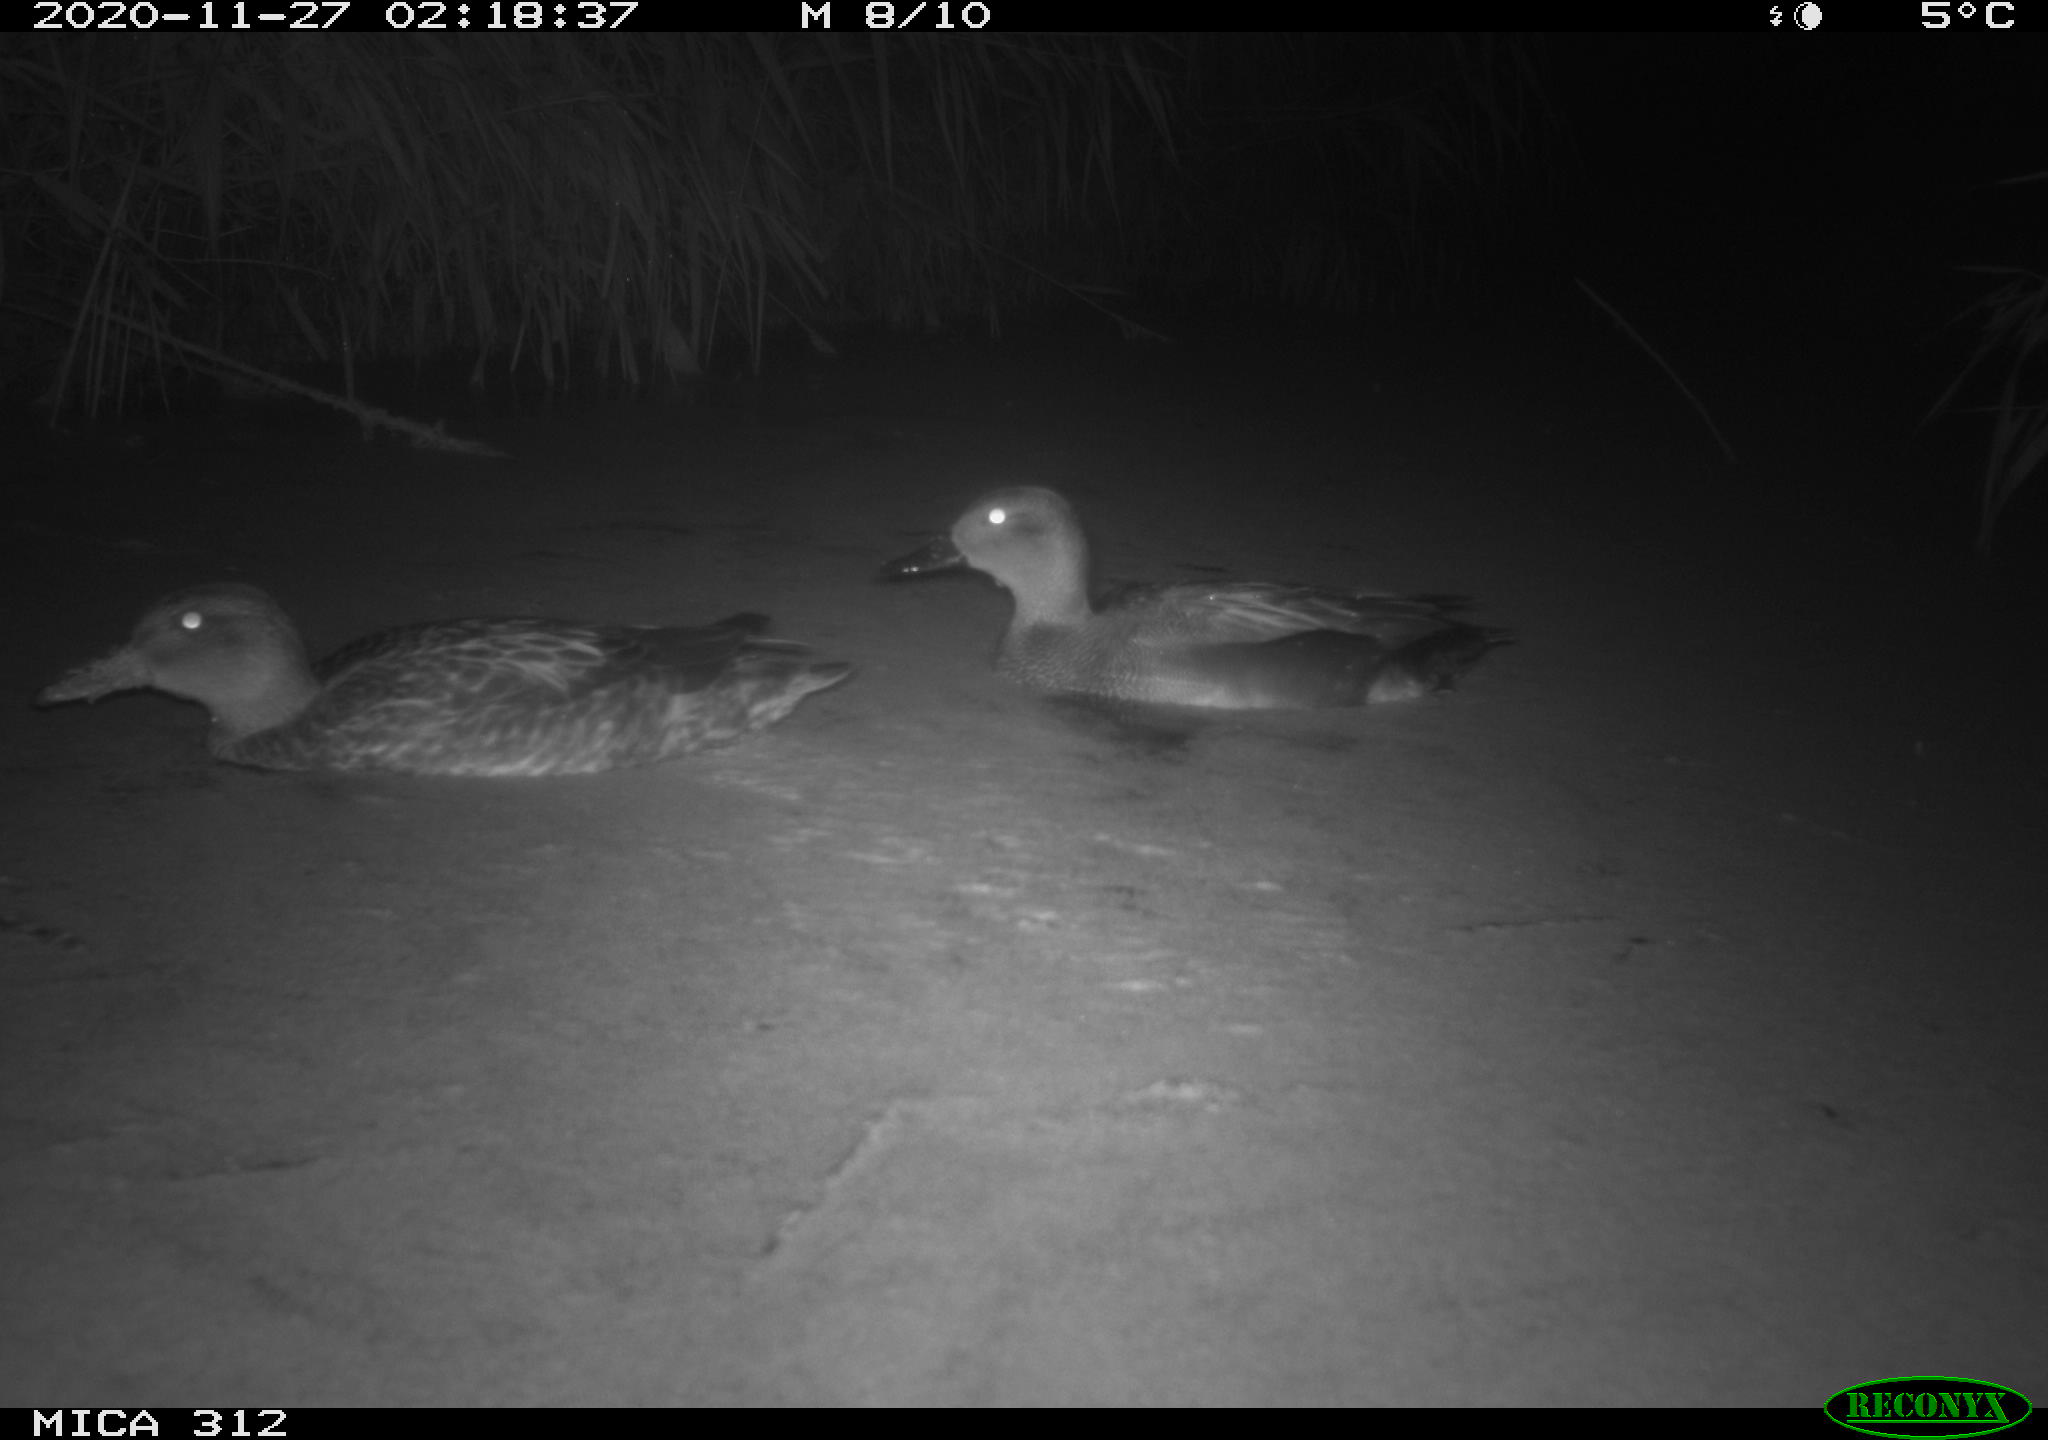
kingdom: Animalia
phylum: Chordata
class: Aves
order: Anseriformes
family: Anatidae
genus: Mareca
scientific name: Mareca strepera
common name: Gadwall
